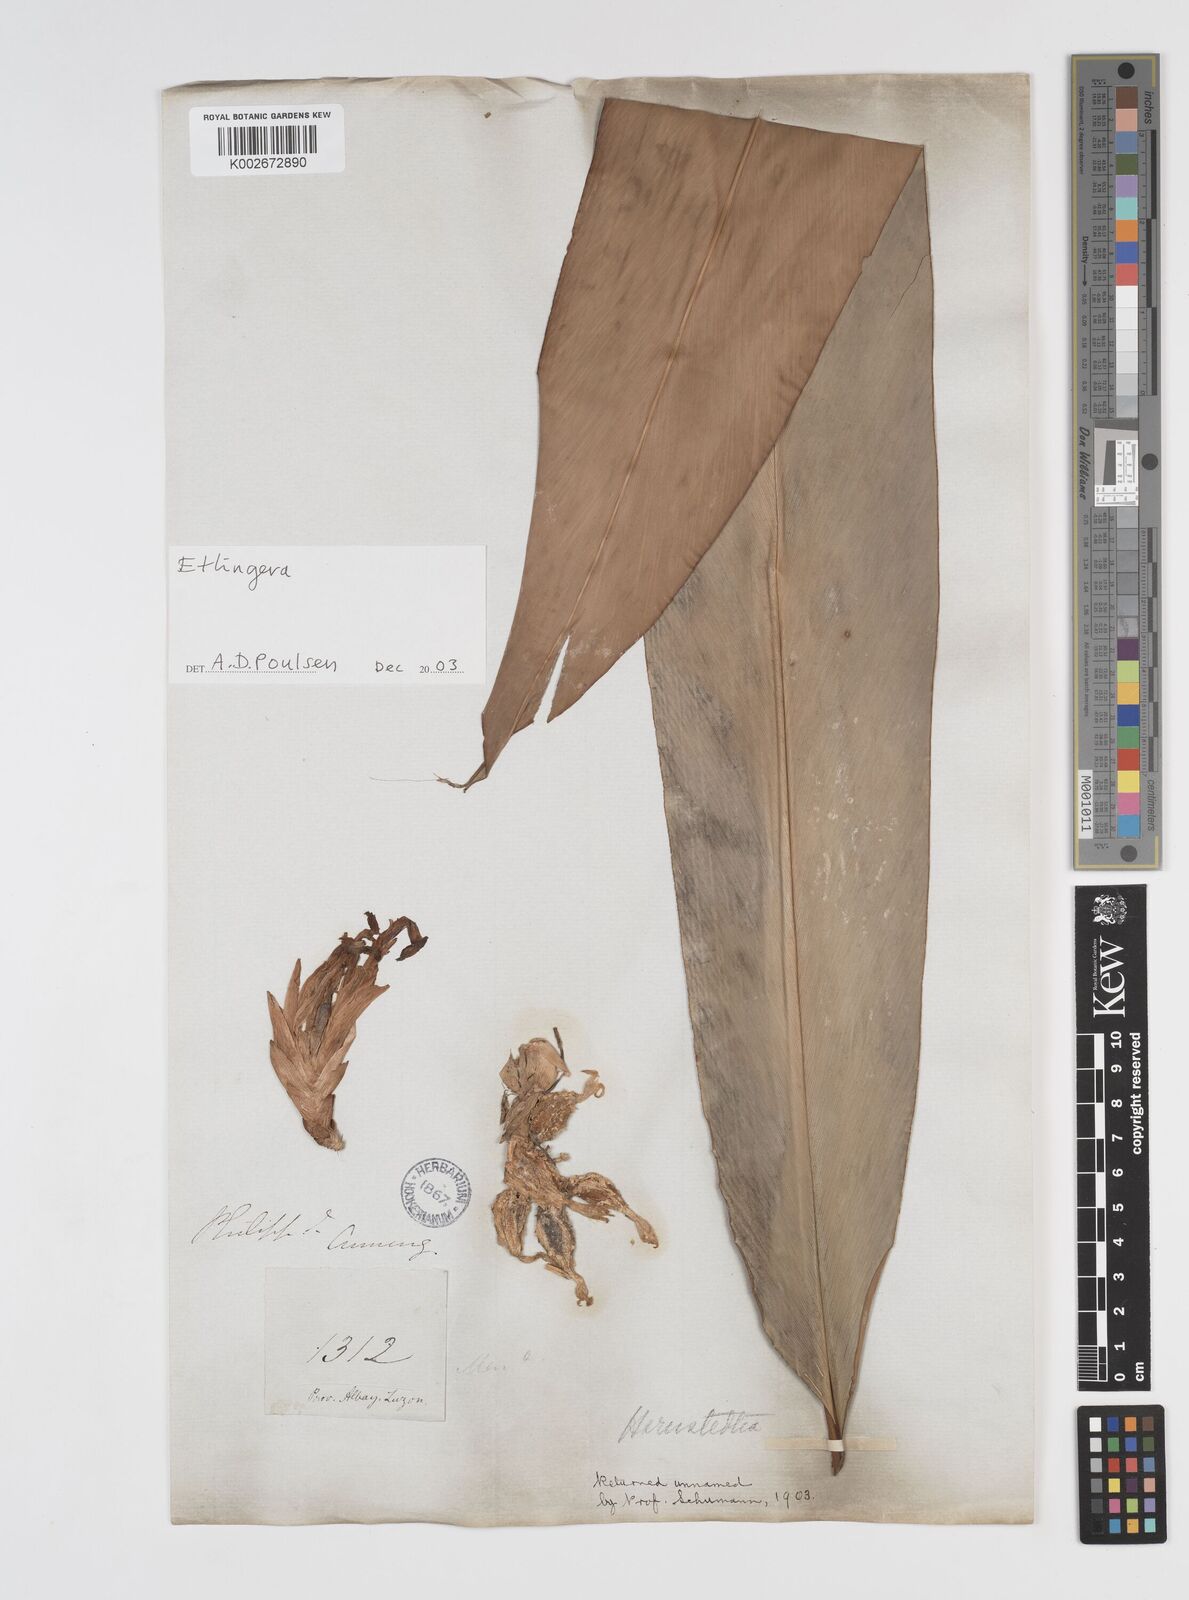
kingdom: Plantae
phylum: Tracheophyta
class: Liliopsida
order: Zingiberales
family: Zingiberaceae
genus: Etlingera
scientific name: Etlingera
